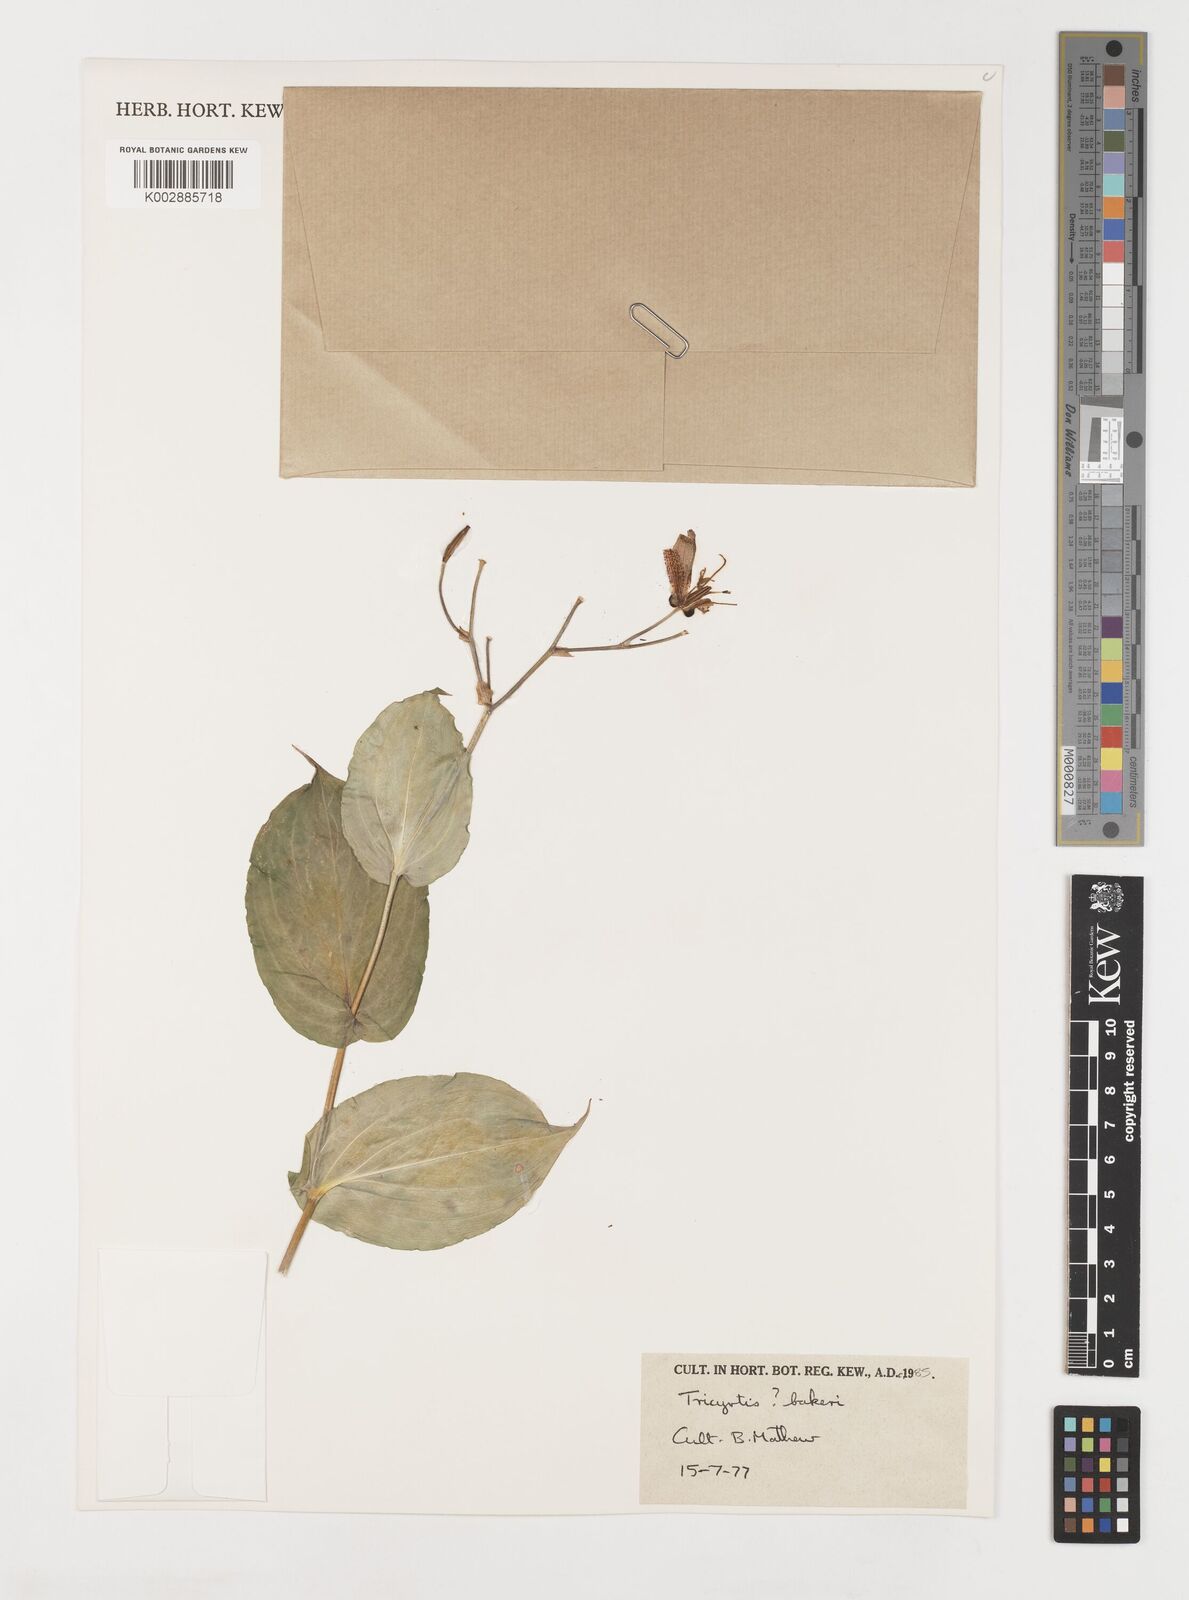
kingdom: Plantae
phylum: Tracheophyta
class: Liliopsida
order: Liliales
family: Liliaceae
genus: Tricyrtis
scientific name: Tricyrtis latifolia
